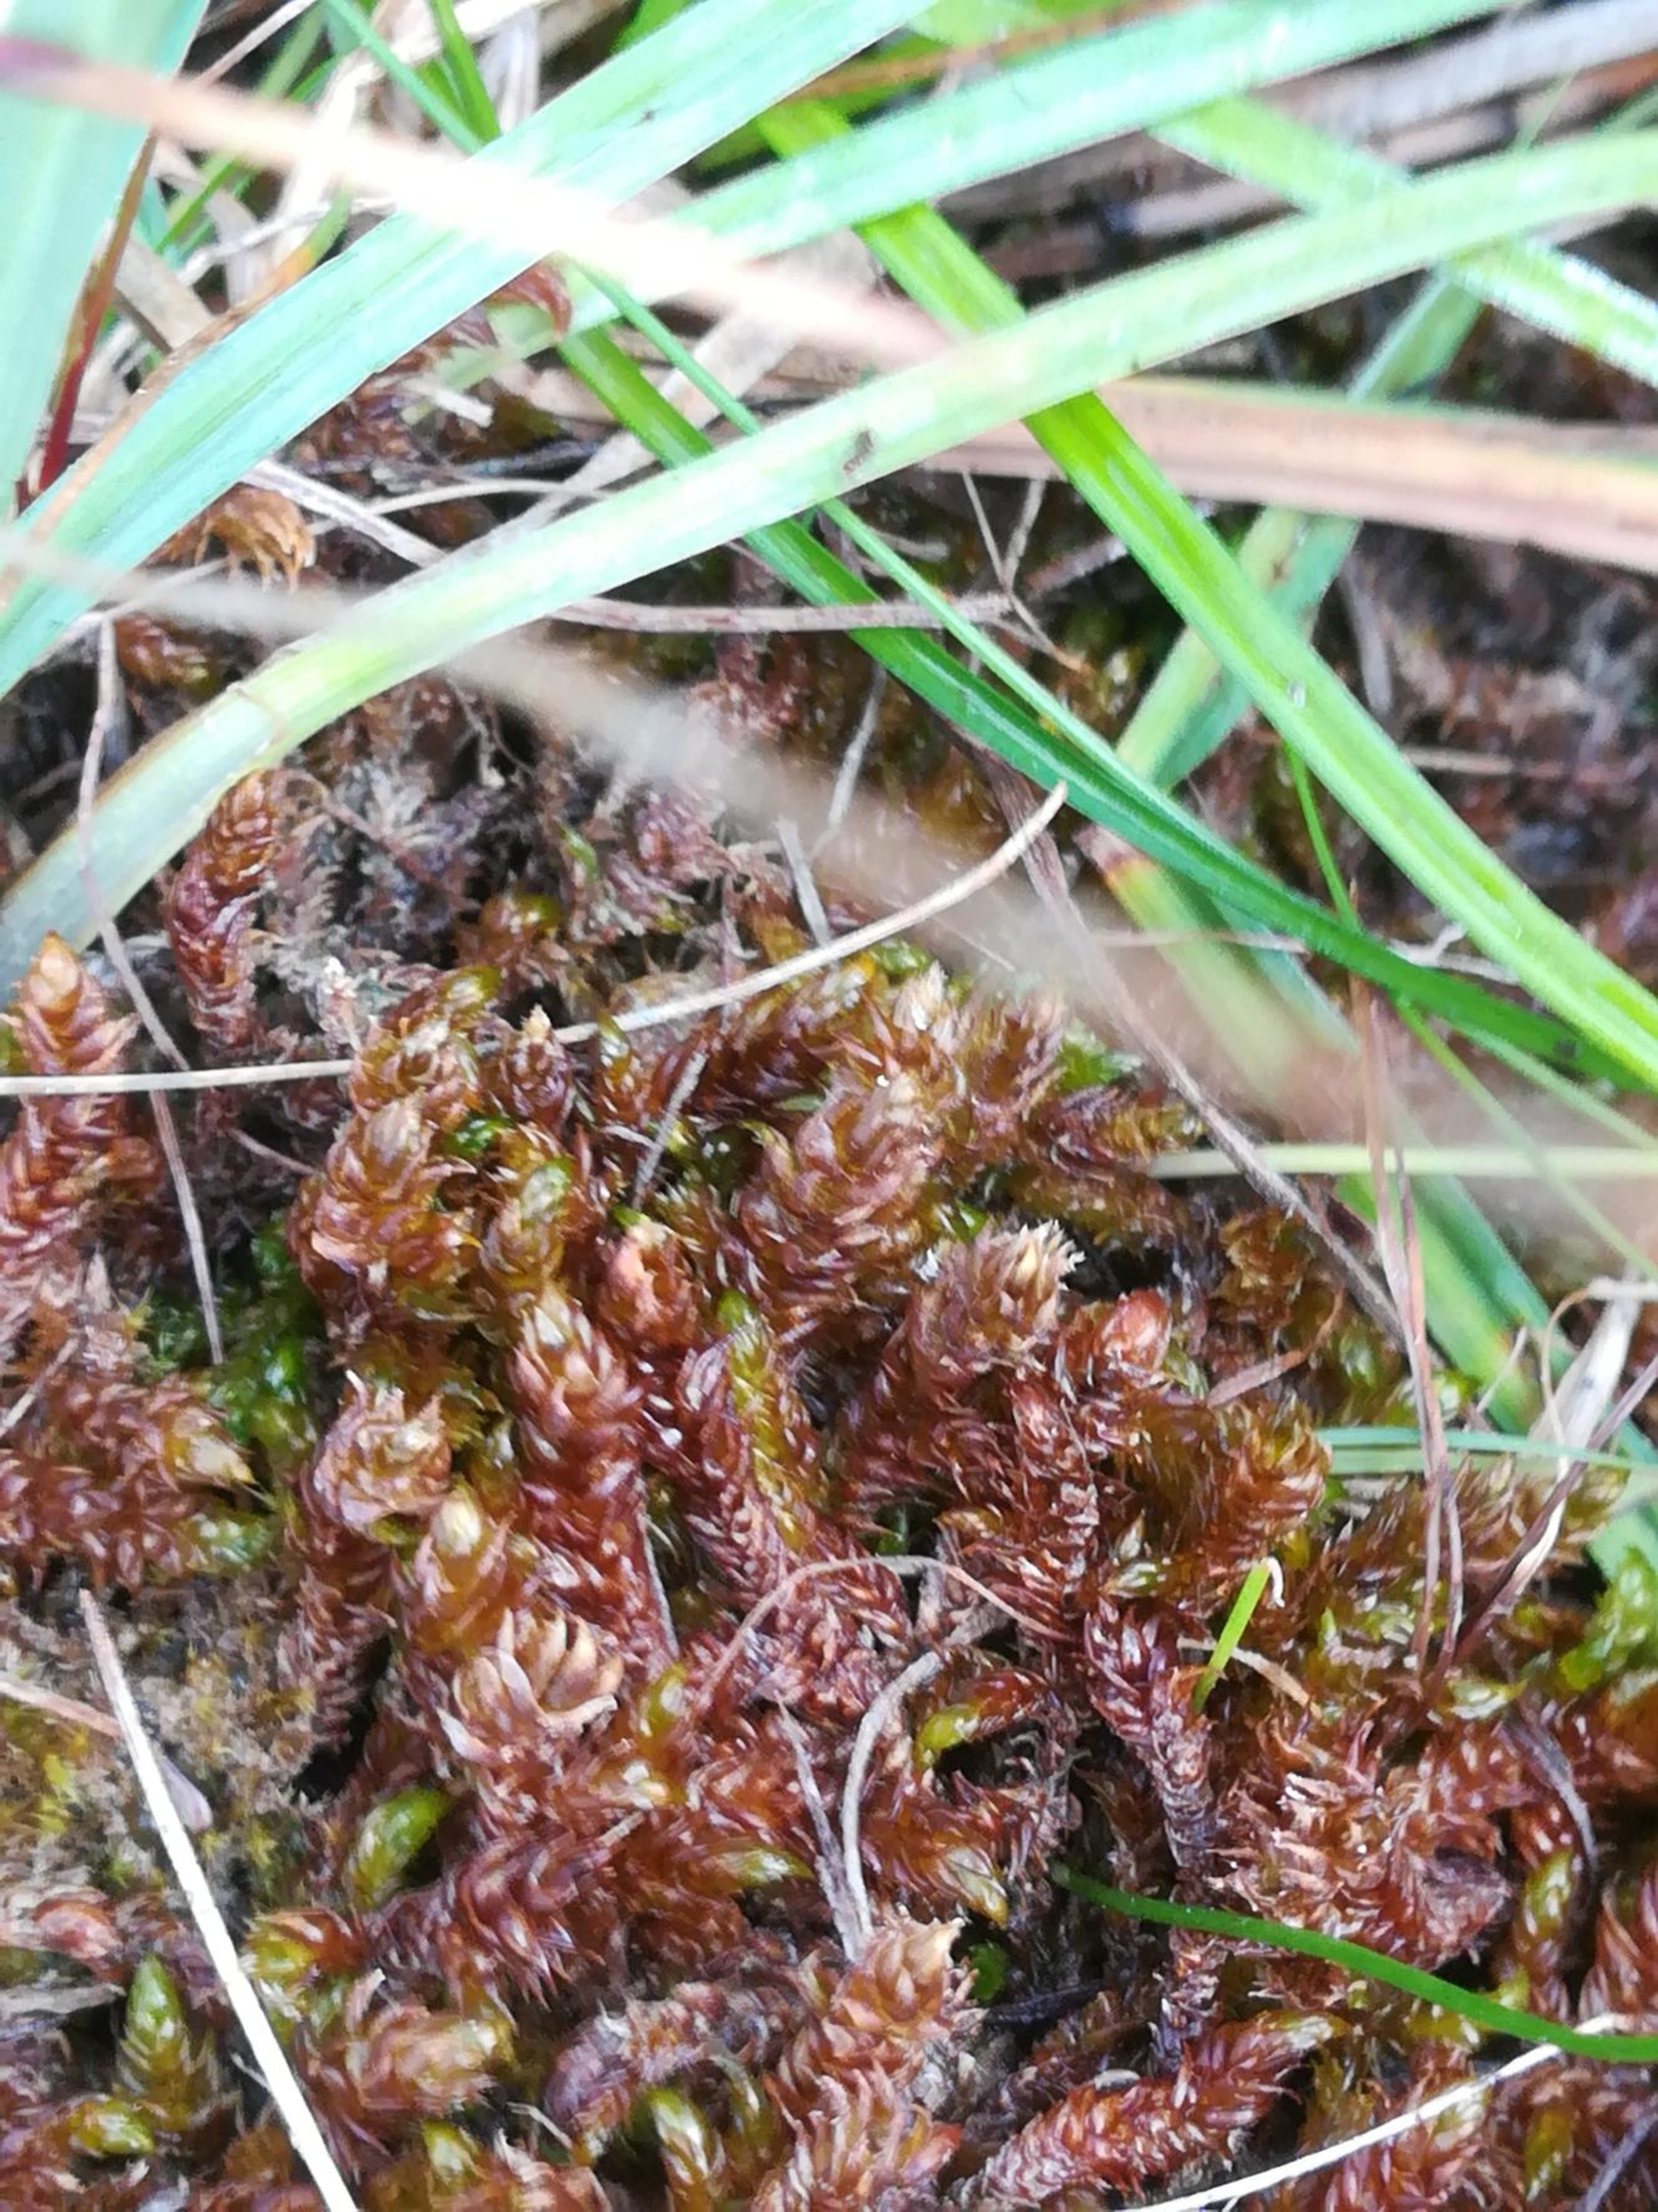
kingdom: Plantae
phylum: Bryophyta
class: Bryopsida
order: Hypnales
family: Scorpidiaceae
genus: Scorpidium
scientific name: Scorpidium scorpioides
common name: Stor skorpionmos
